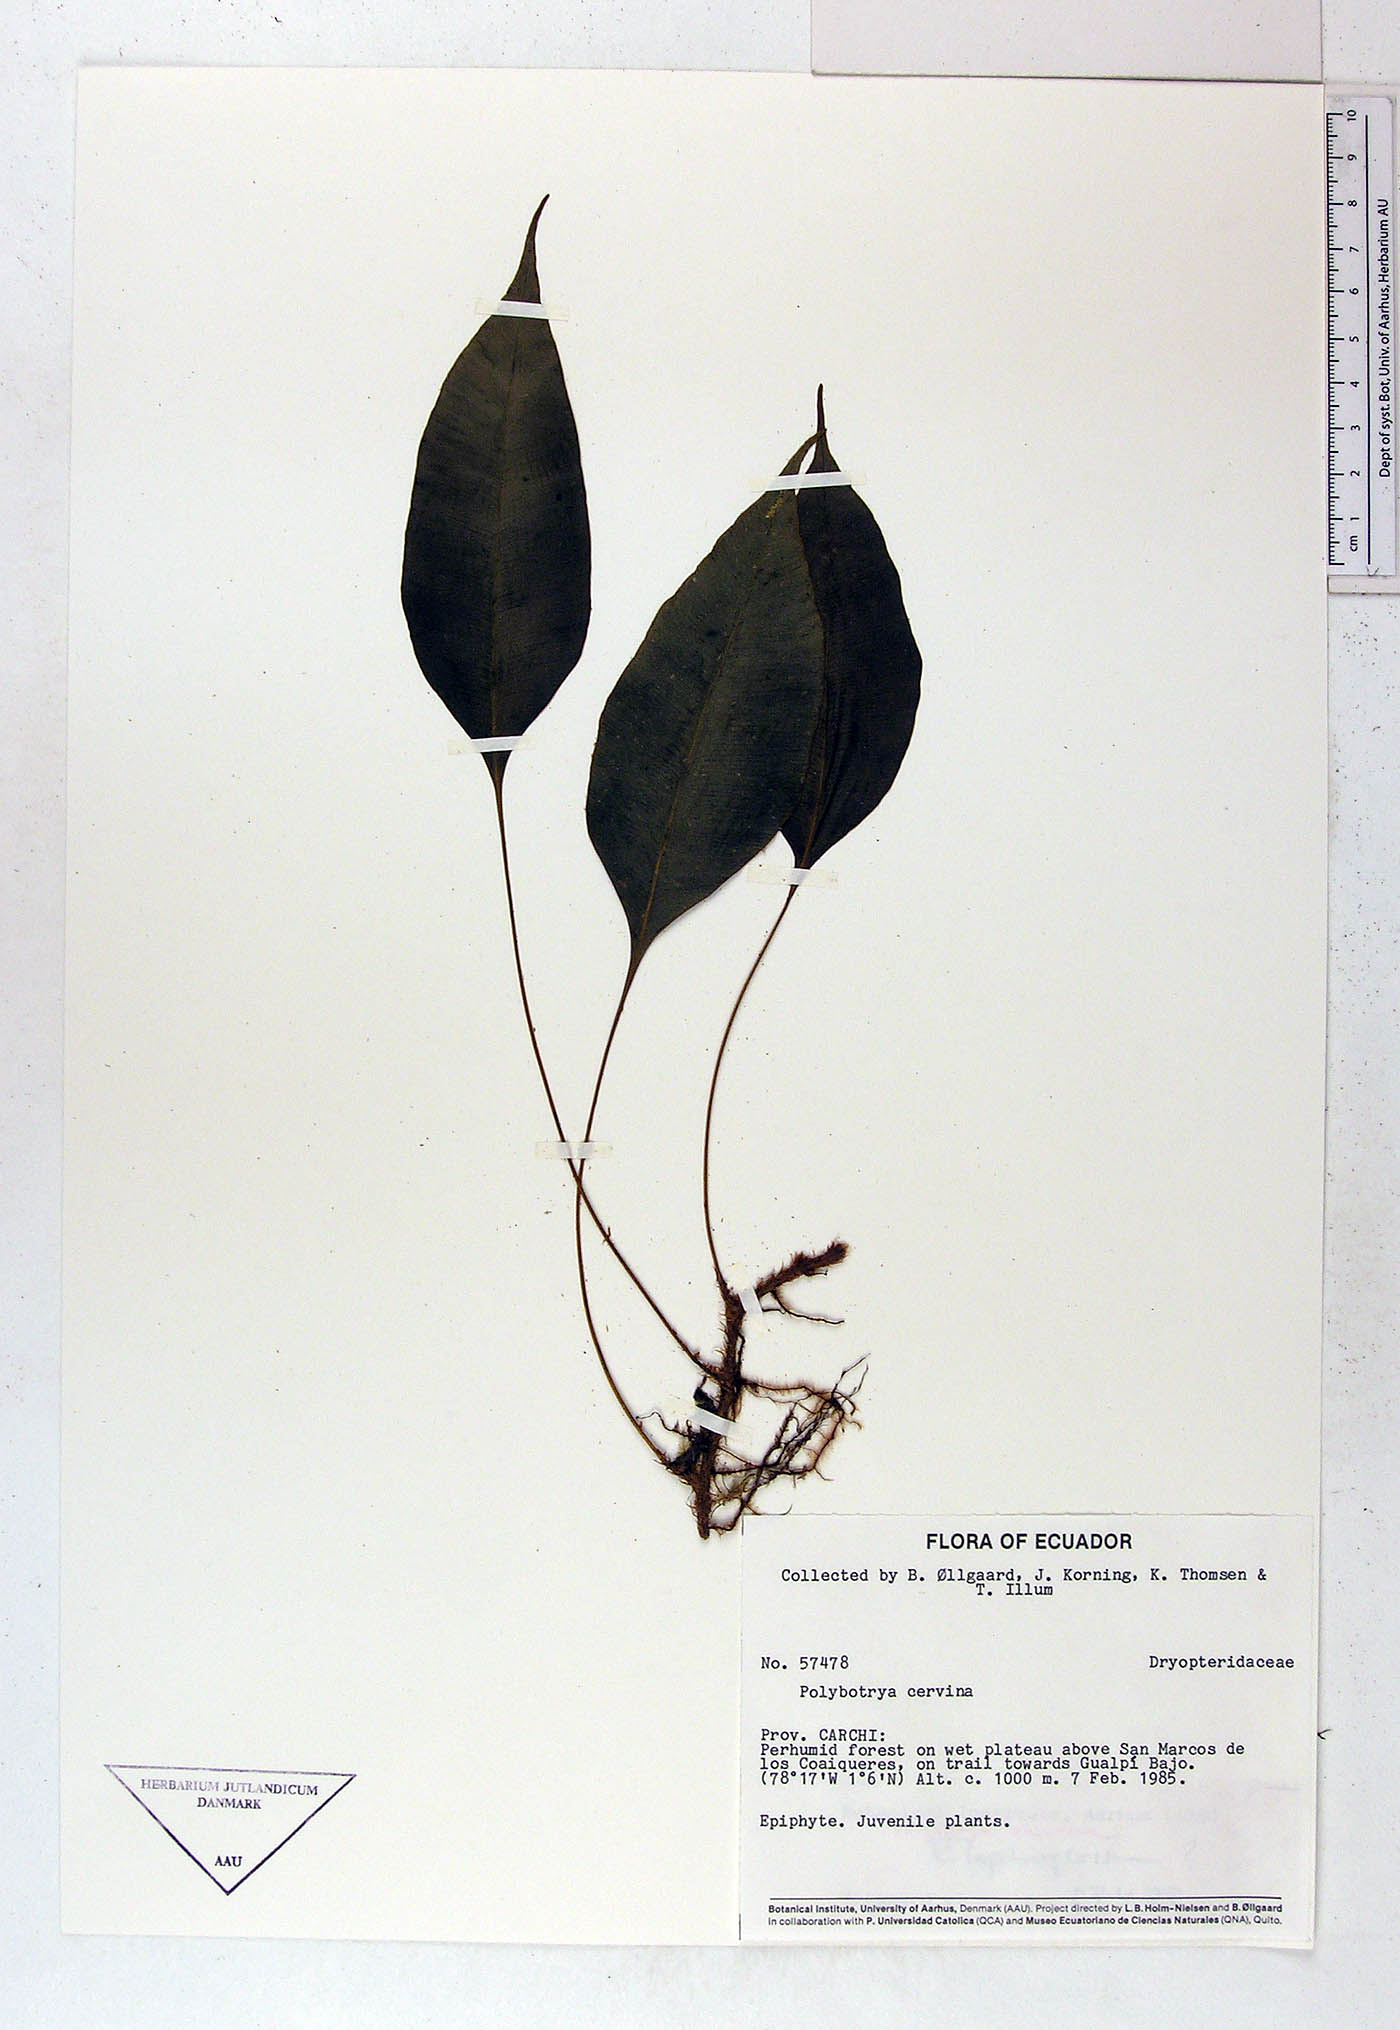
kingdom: Plantae
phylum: Tracheophyta
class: Polypodiopsida
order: Polypodiales
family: Dryopteridaceae
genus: Olfersia
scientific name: Olfersia cervina
